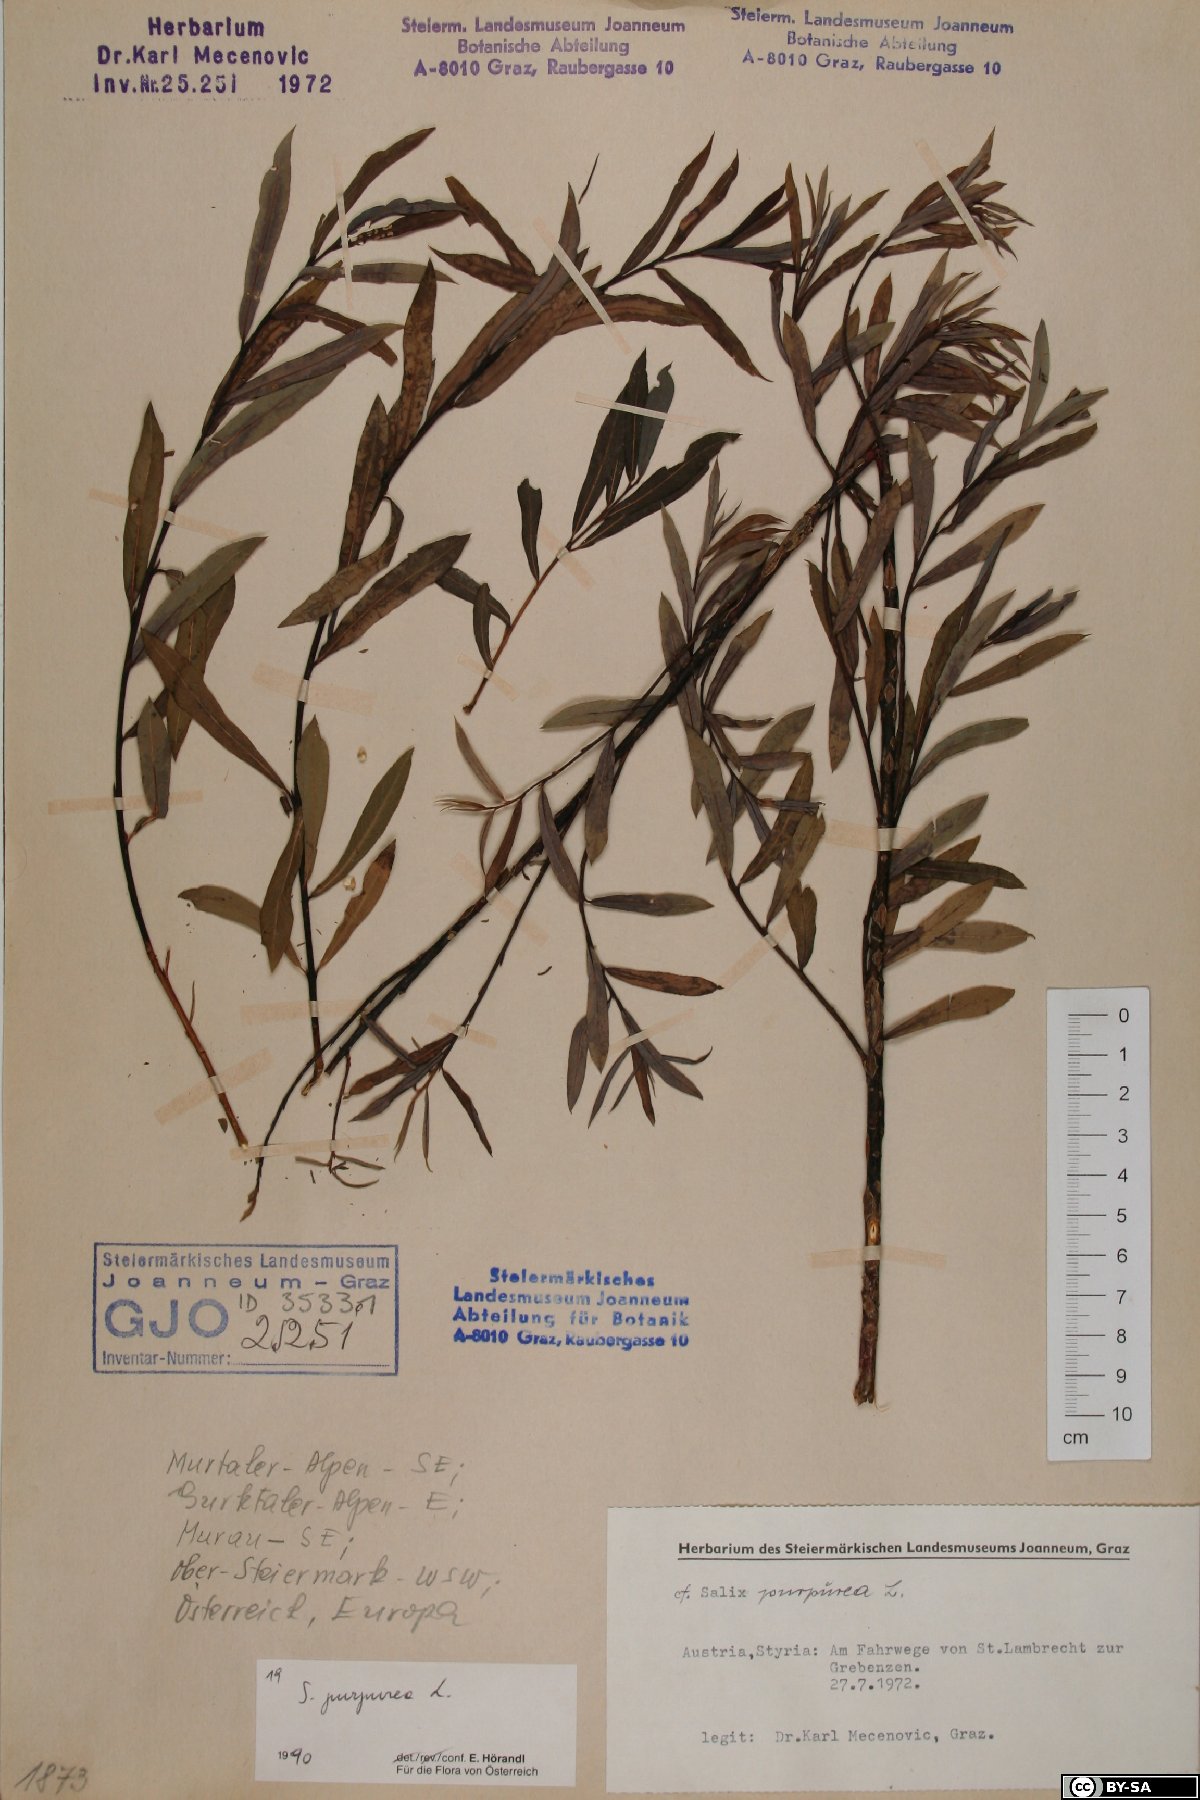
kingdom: Plantae
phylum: Tracheophyta
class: Magnoliopsida
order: Malpighiales
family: Salicaceae
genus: Salix
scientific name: Salix purpurea
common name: Purple willow
